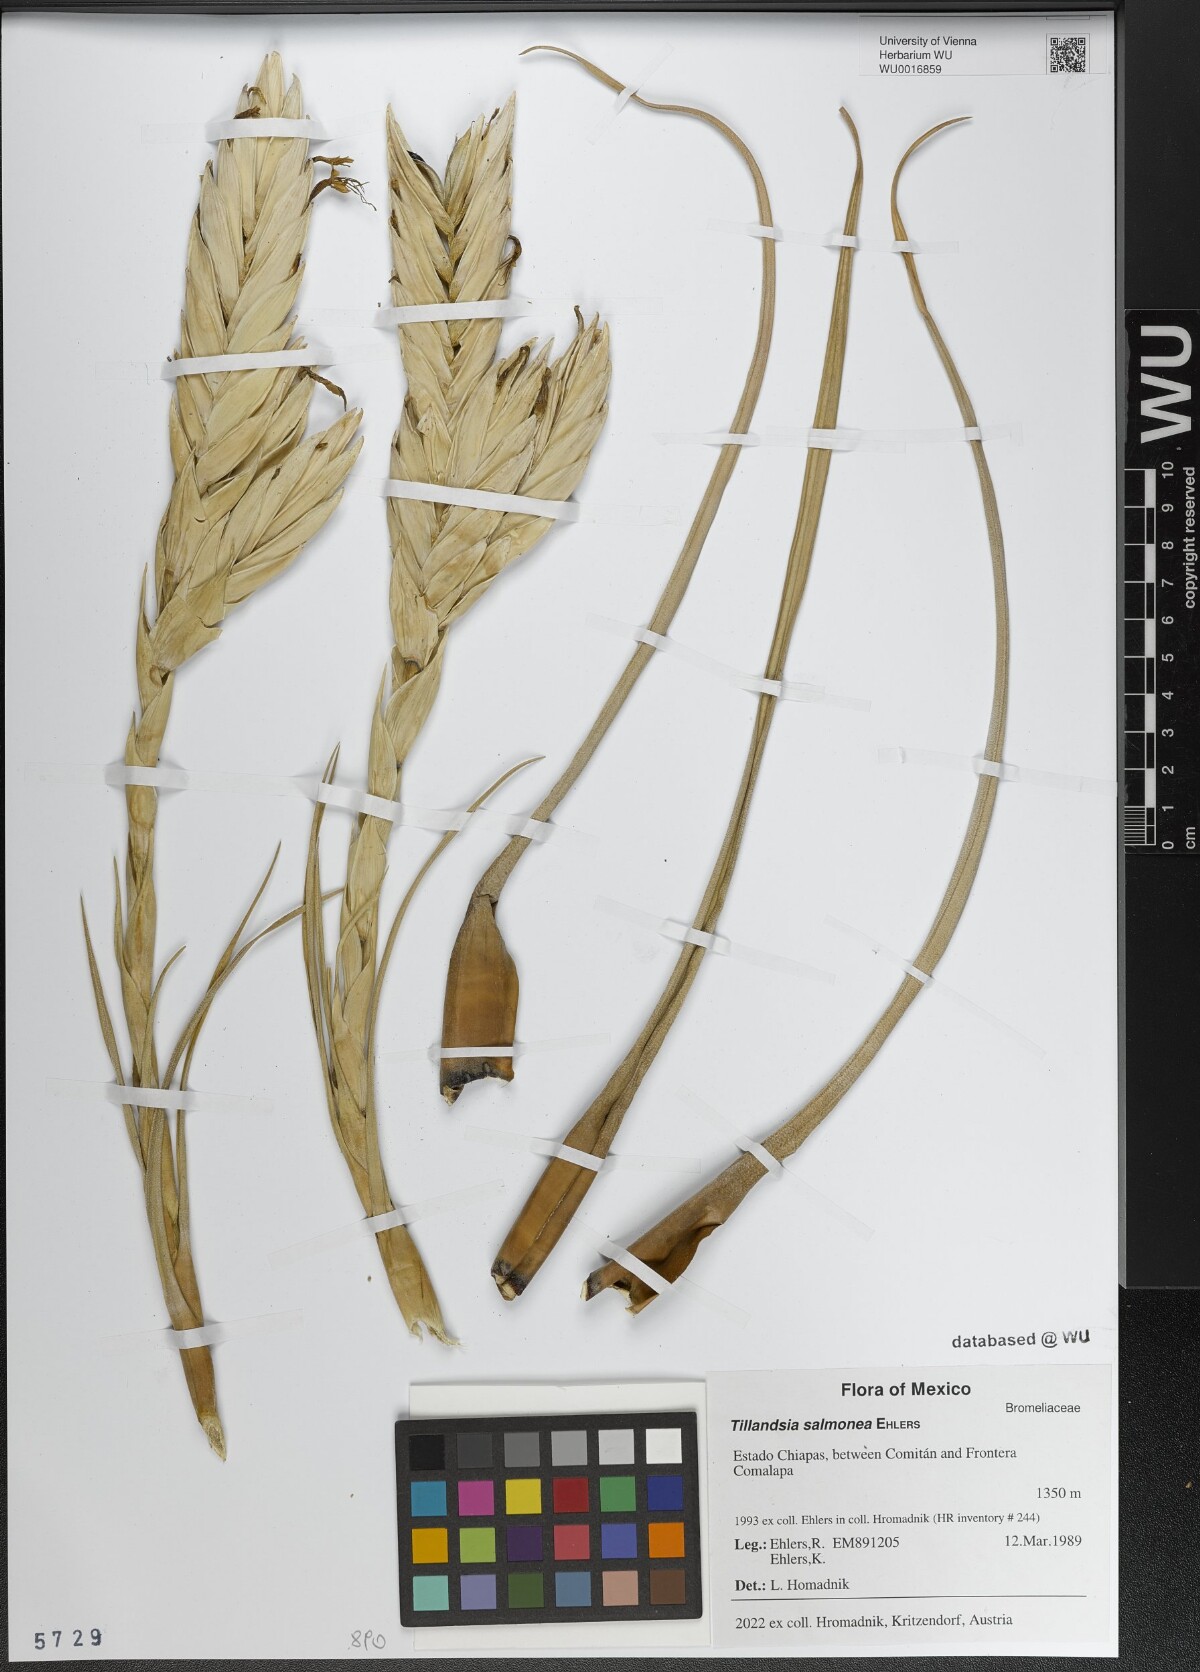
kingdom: Plantae
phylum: Tracheophyta
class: Liliopsida
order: Poales
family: Bromeliaceae
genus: Tillandsia
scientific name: Tillandsia salmonea
